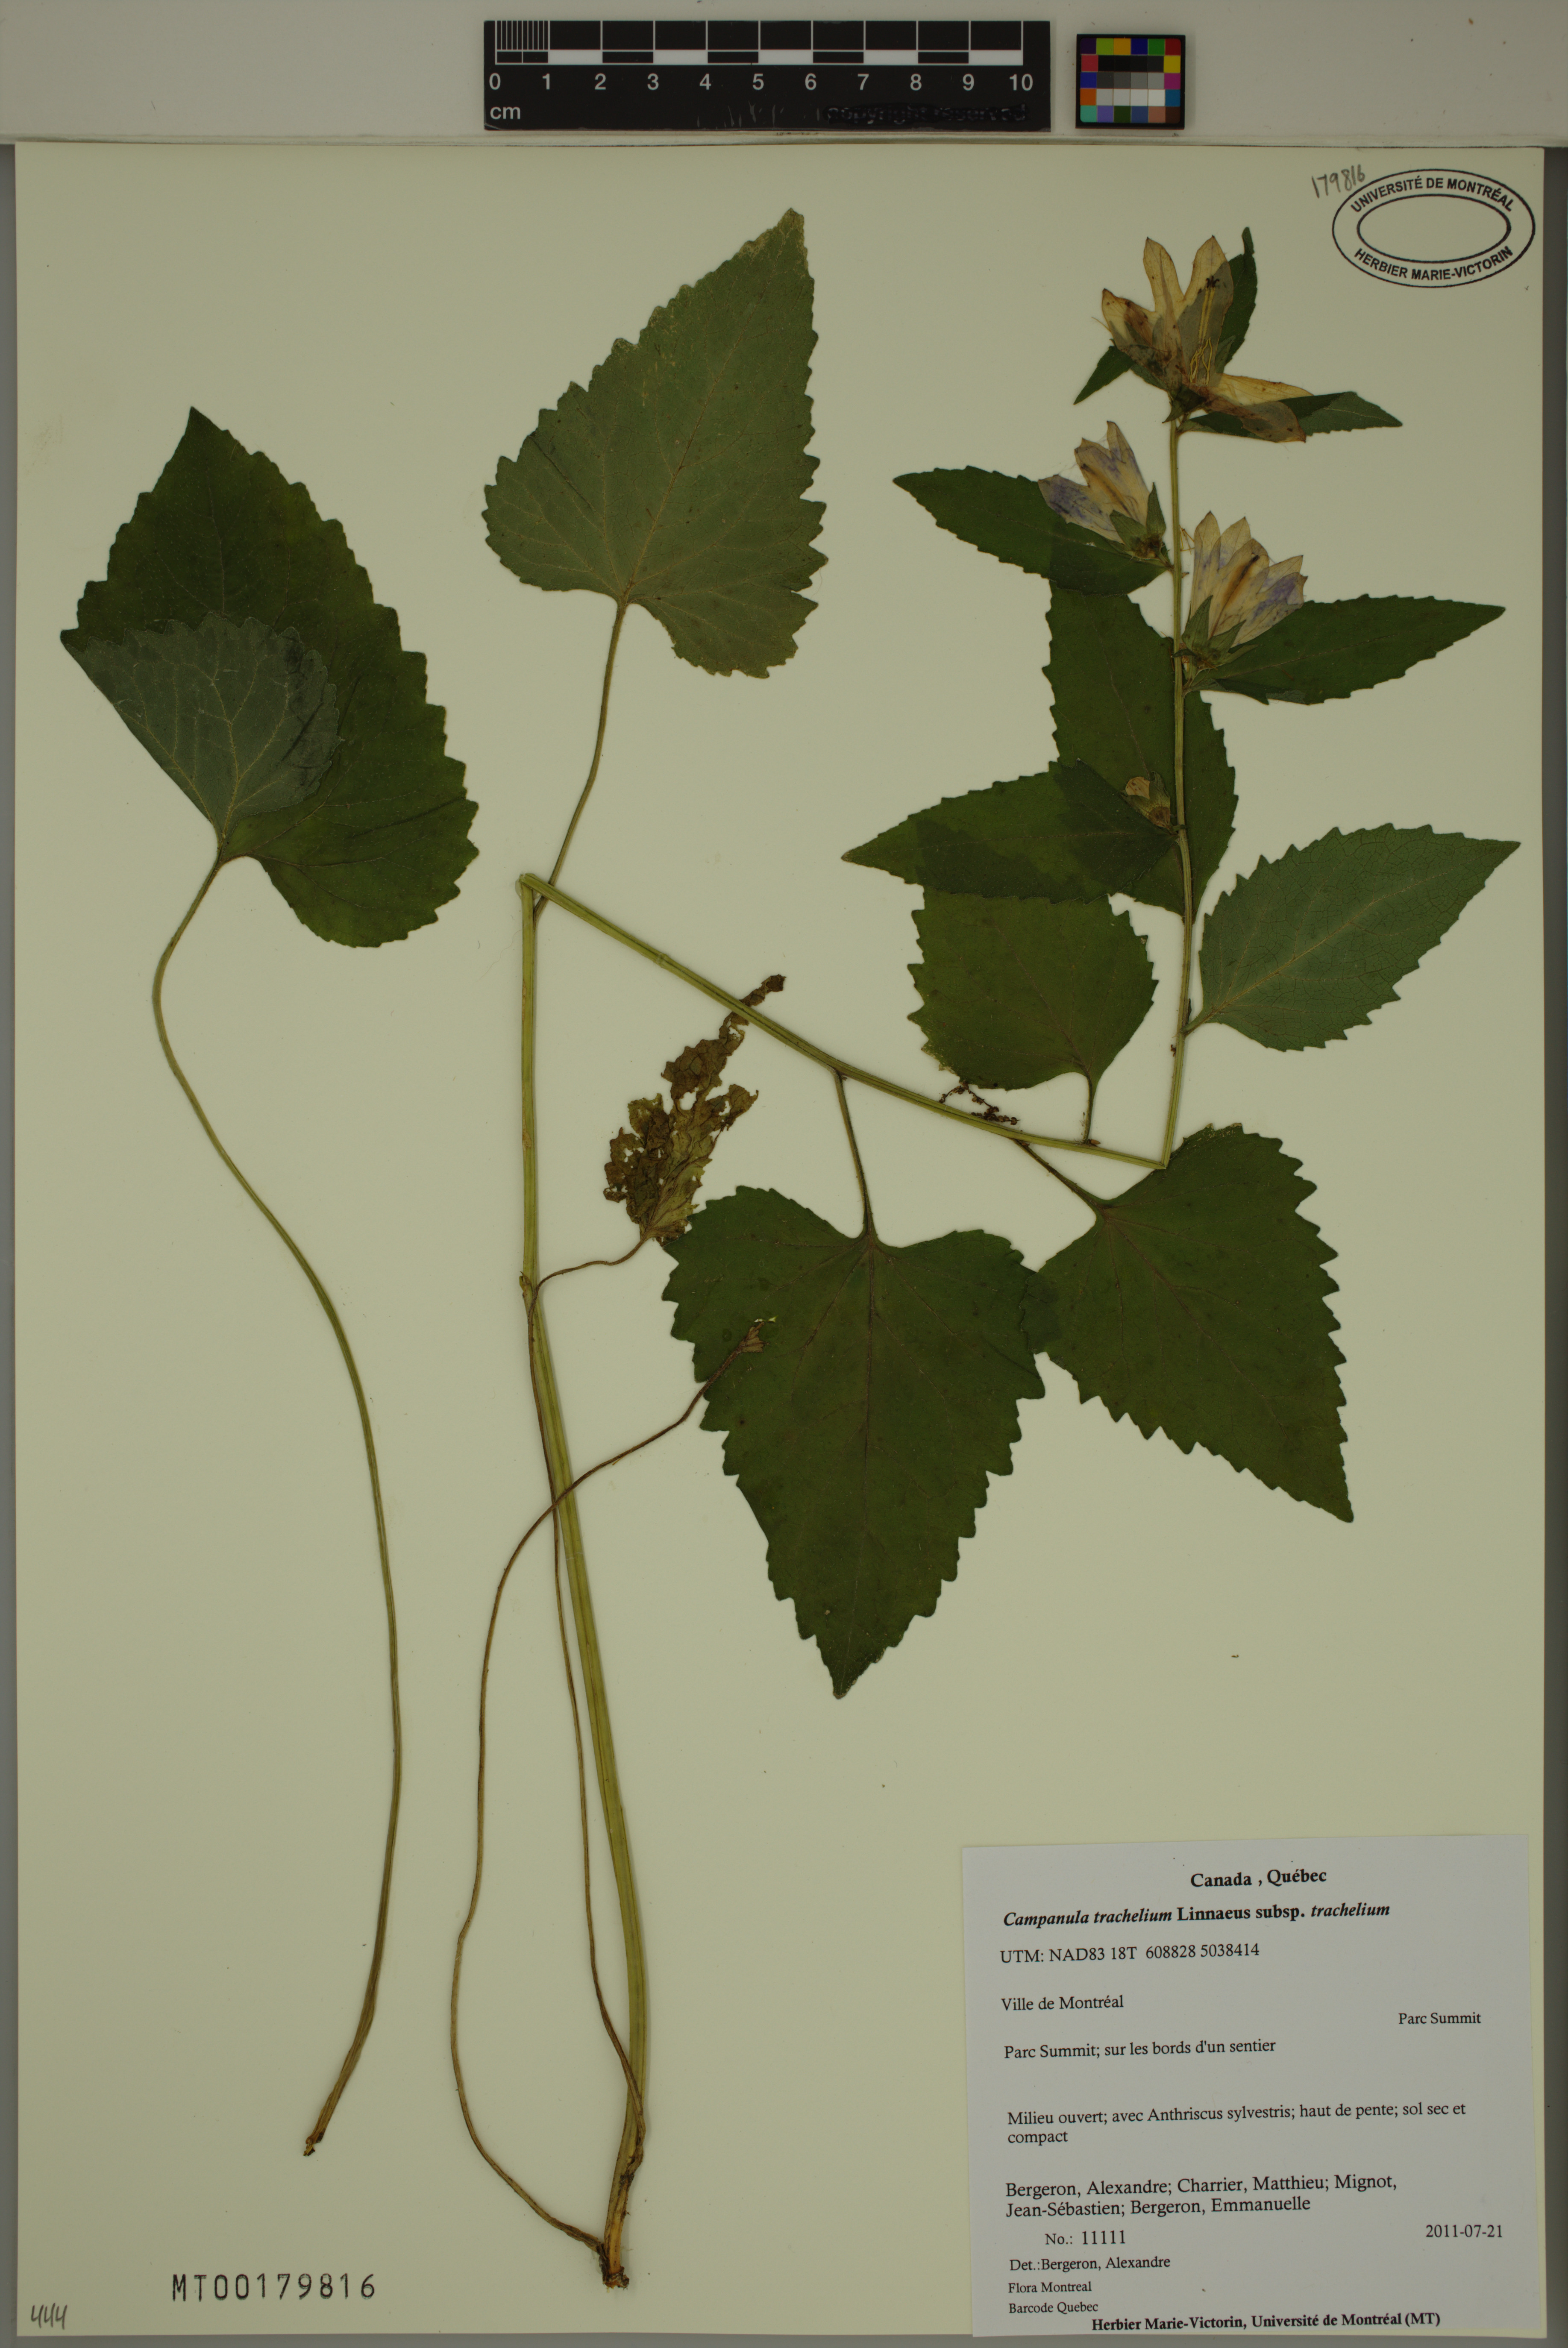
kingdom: Plantae
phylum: Tracheophyta
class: Magnoliopsida
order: Asterales
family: Campanulaceae
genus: Campanula
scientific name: Campanula trachelium
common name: Nettle-leaved bellflower
